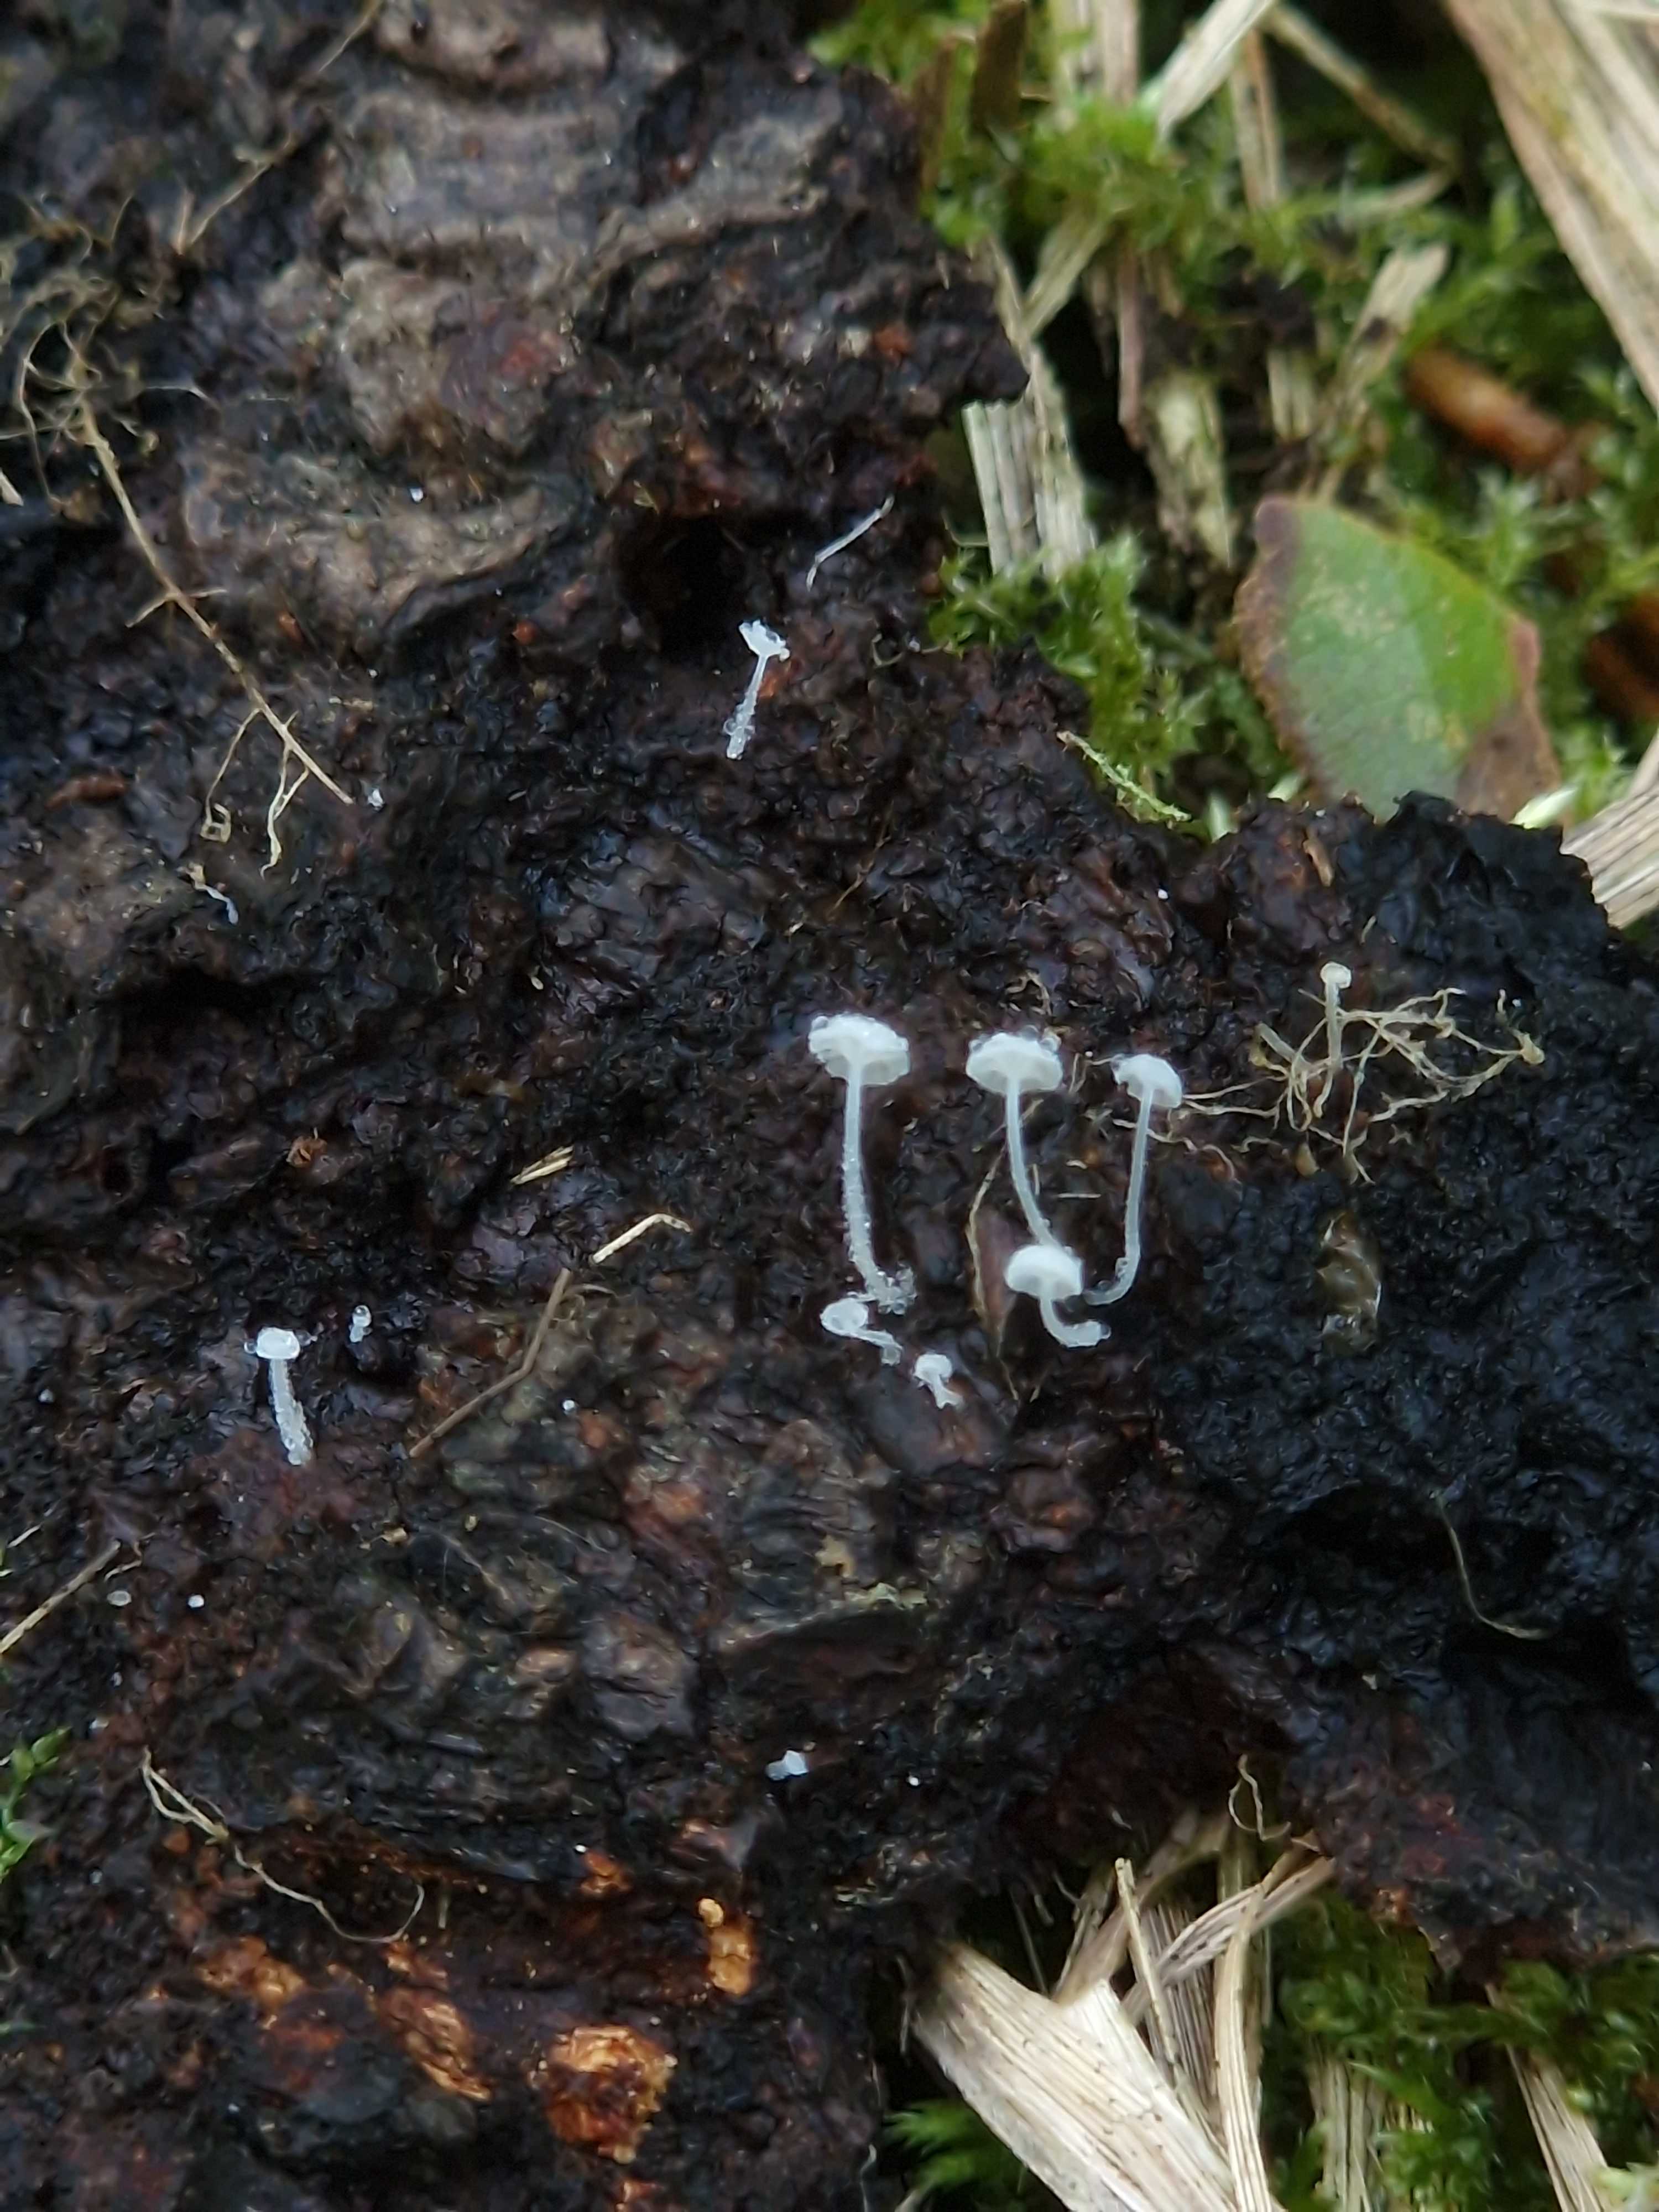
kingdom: Fungi
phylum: Basidiomycota
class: Agaricomycetes
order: Agaricales
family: Mycenaceae
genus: Hemimycena
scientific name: Hemimycena
